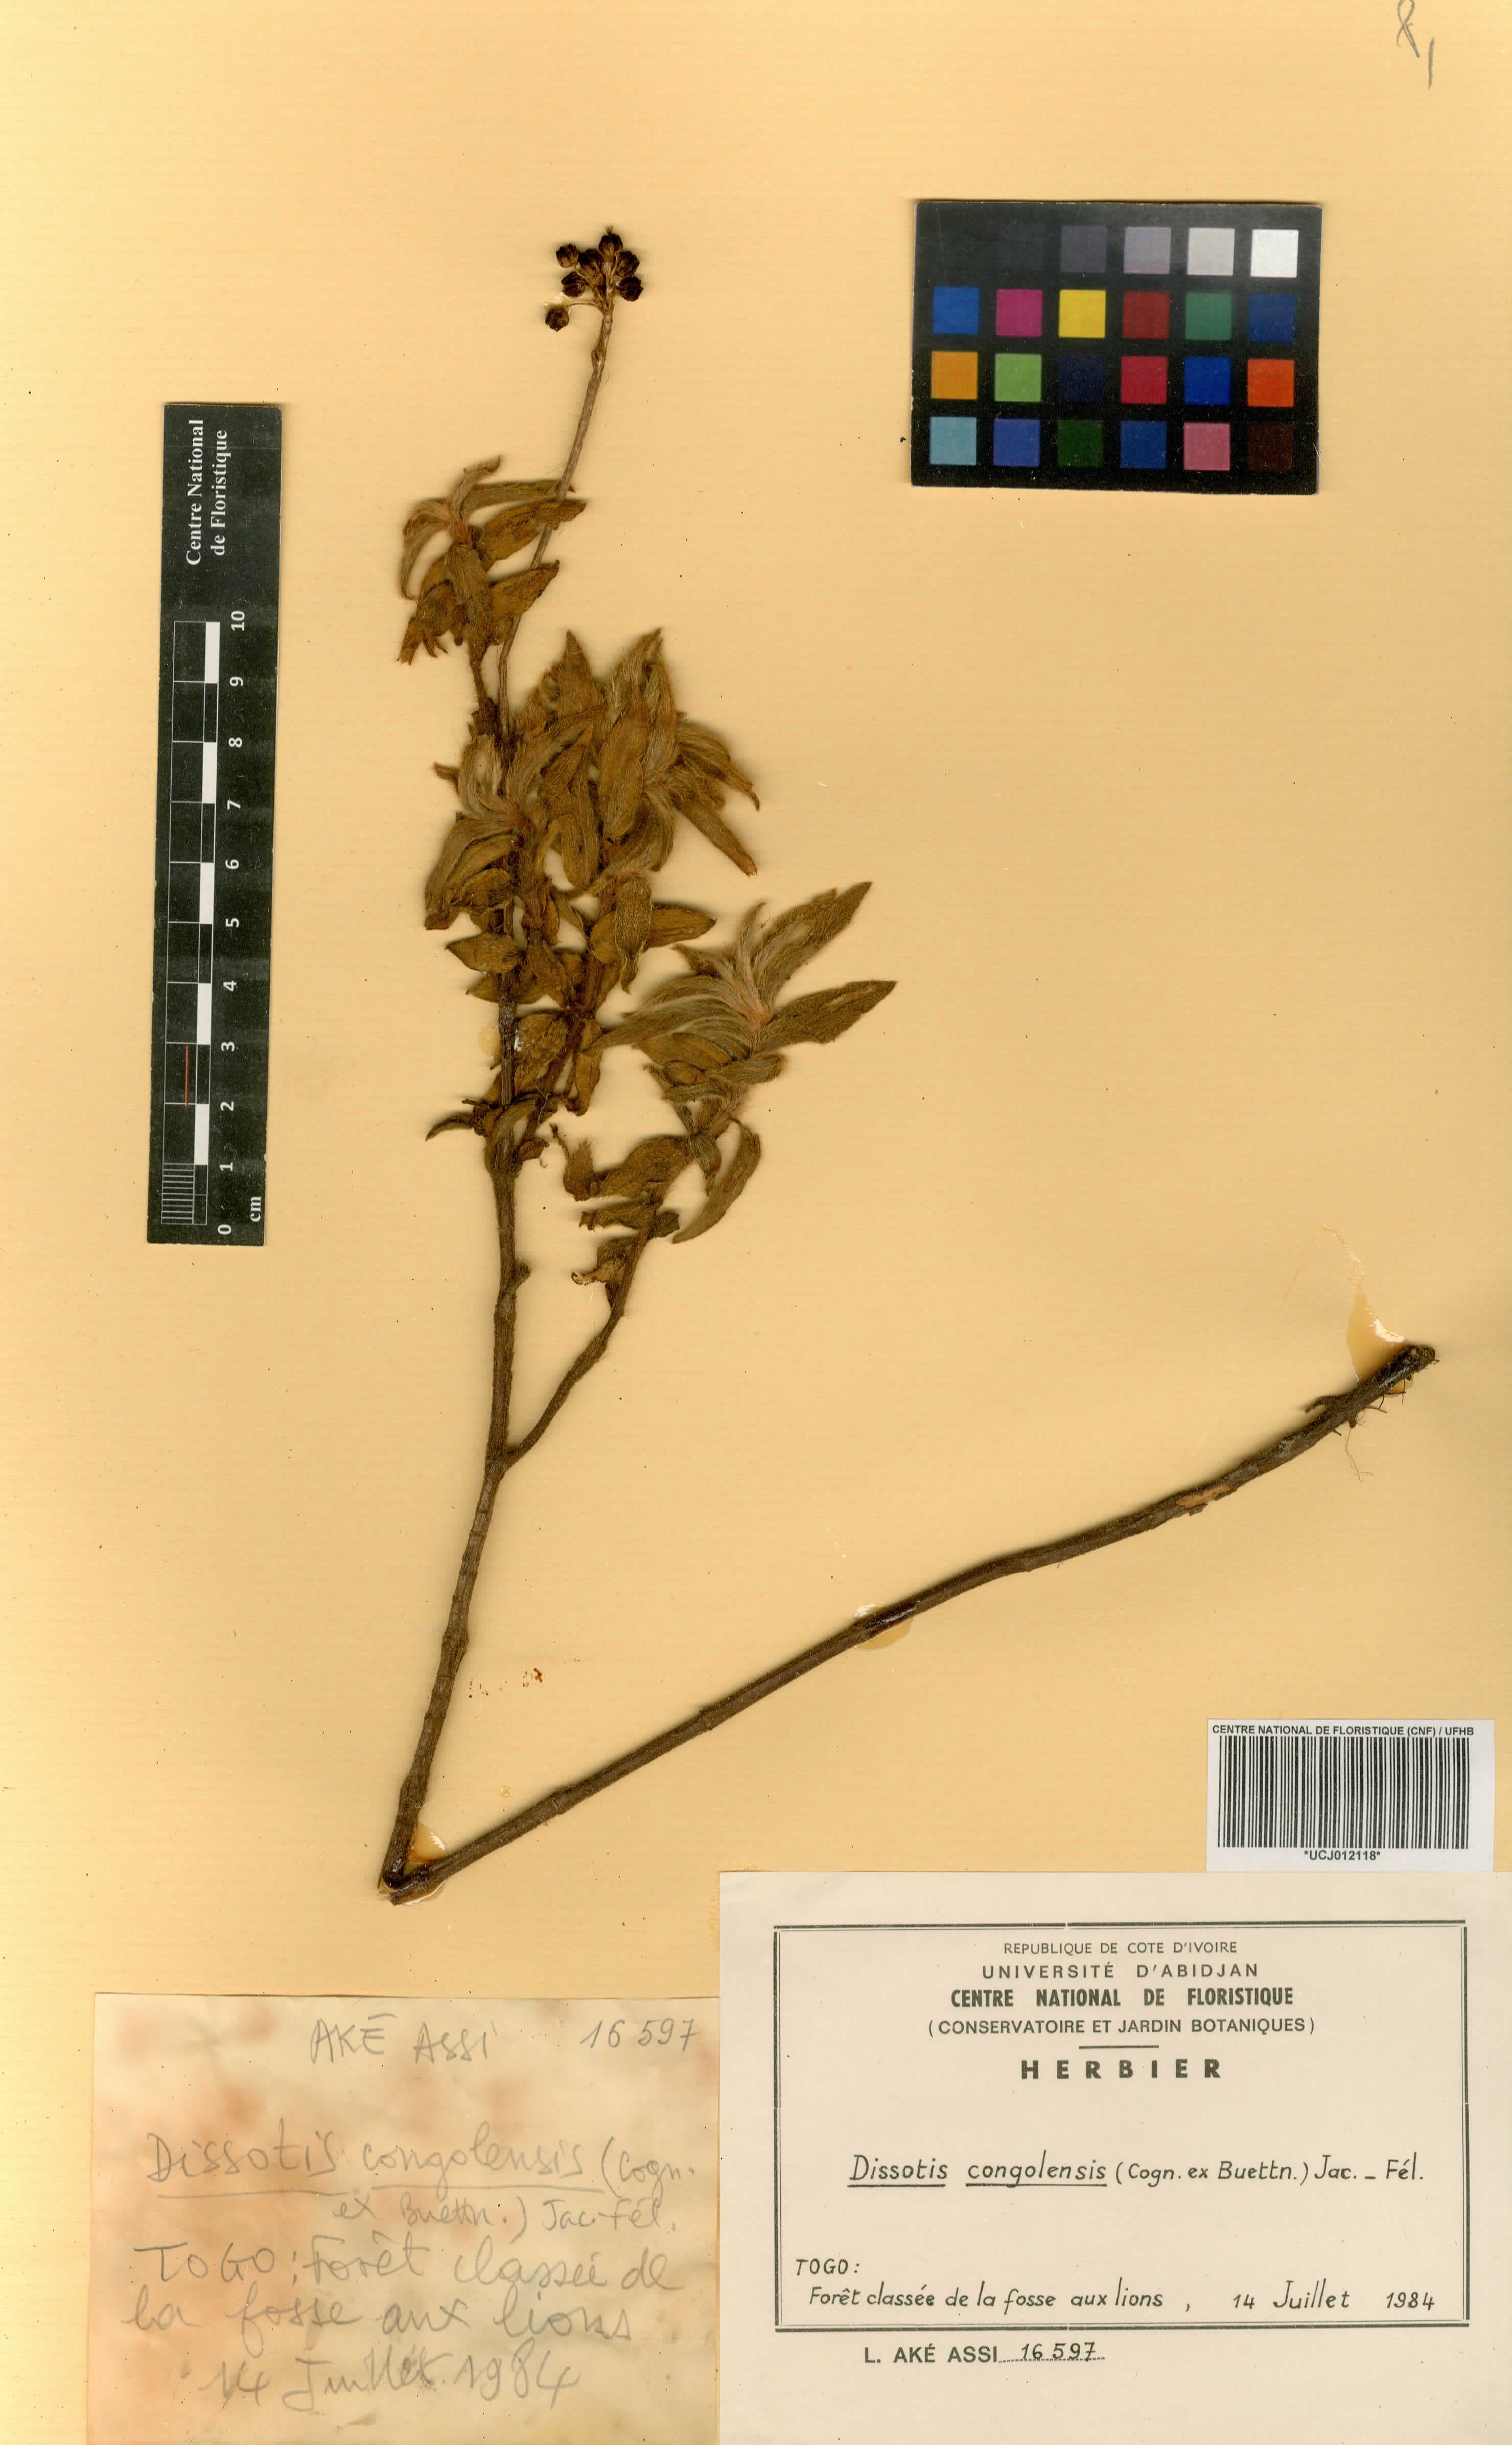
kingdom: Plantae
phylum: Tracheophyta
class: Magnoliopsida
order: Myrtales
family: Melastomataceae
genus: Nerophila
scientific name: Nerophila congolensis
